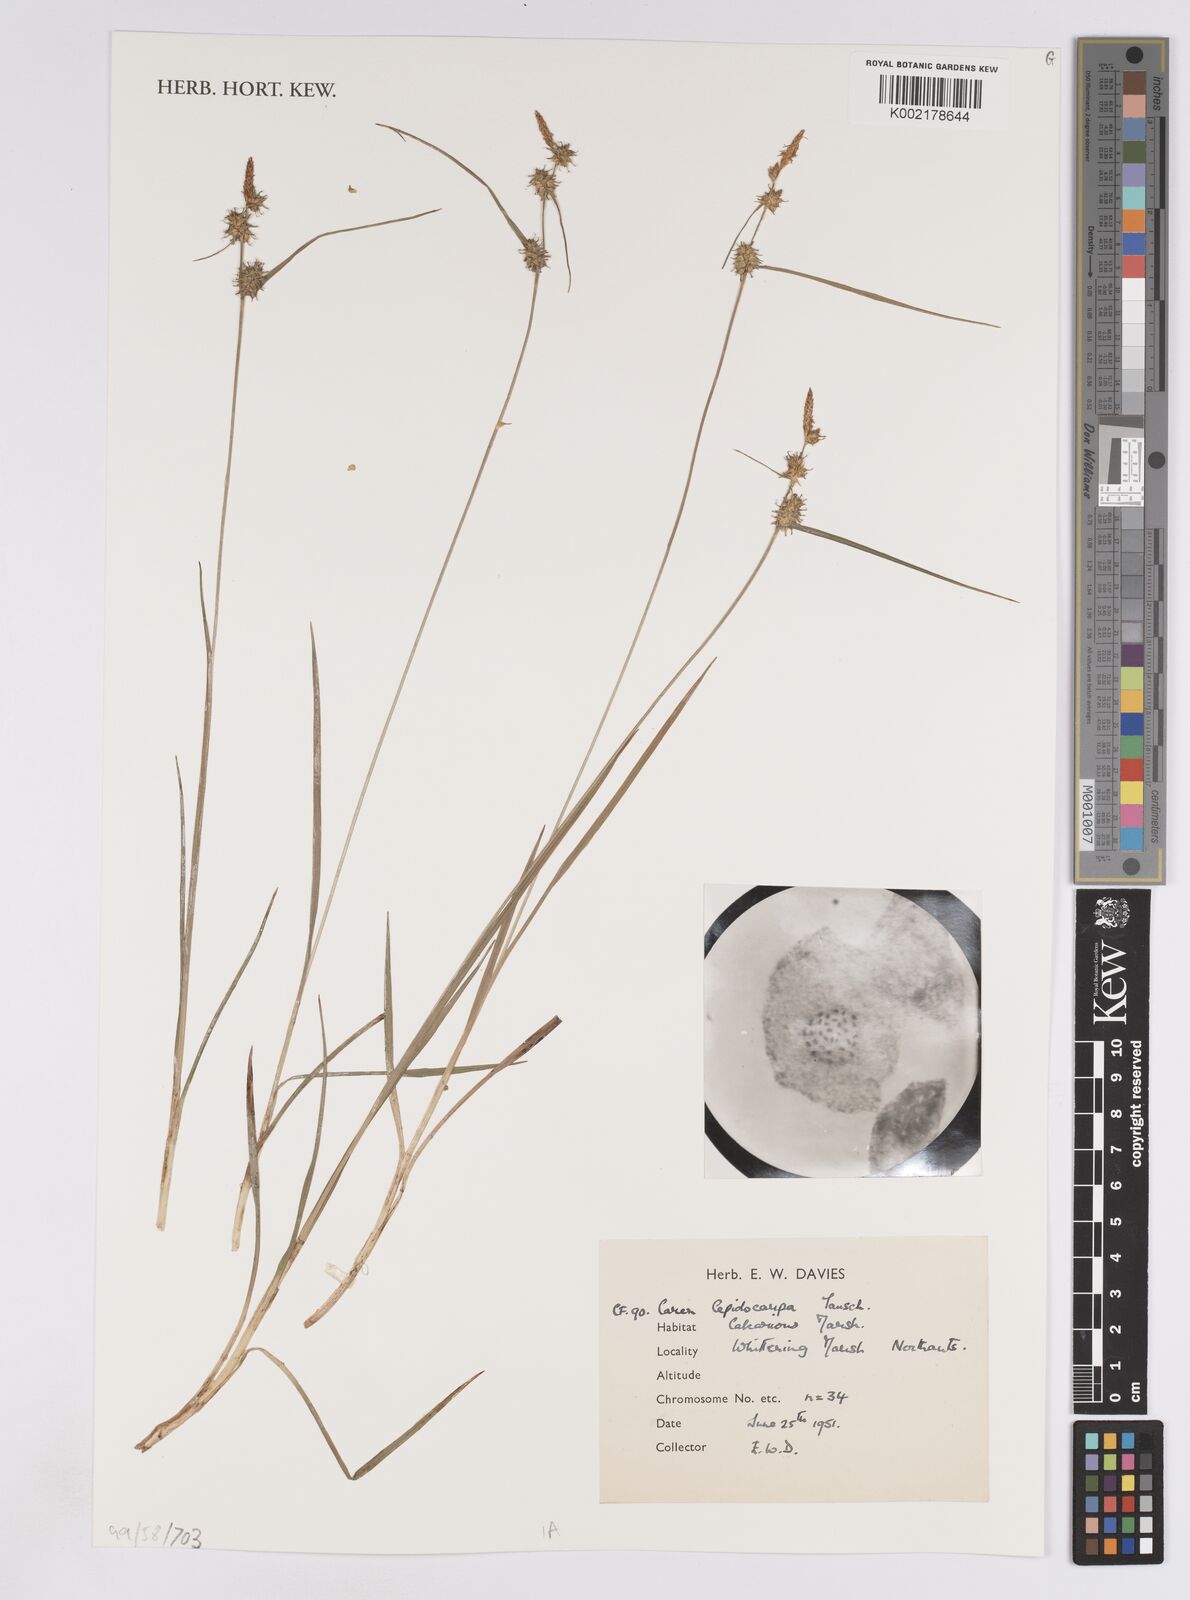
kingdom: Plantae
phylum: Tracheophyta
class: Liliopsida
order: Poales
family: Cyperaceae
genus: Carex
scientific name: Carex lepidocarpa
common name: Long-stalked yellow-sedge
